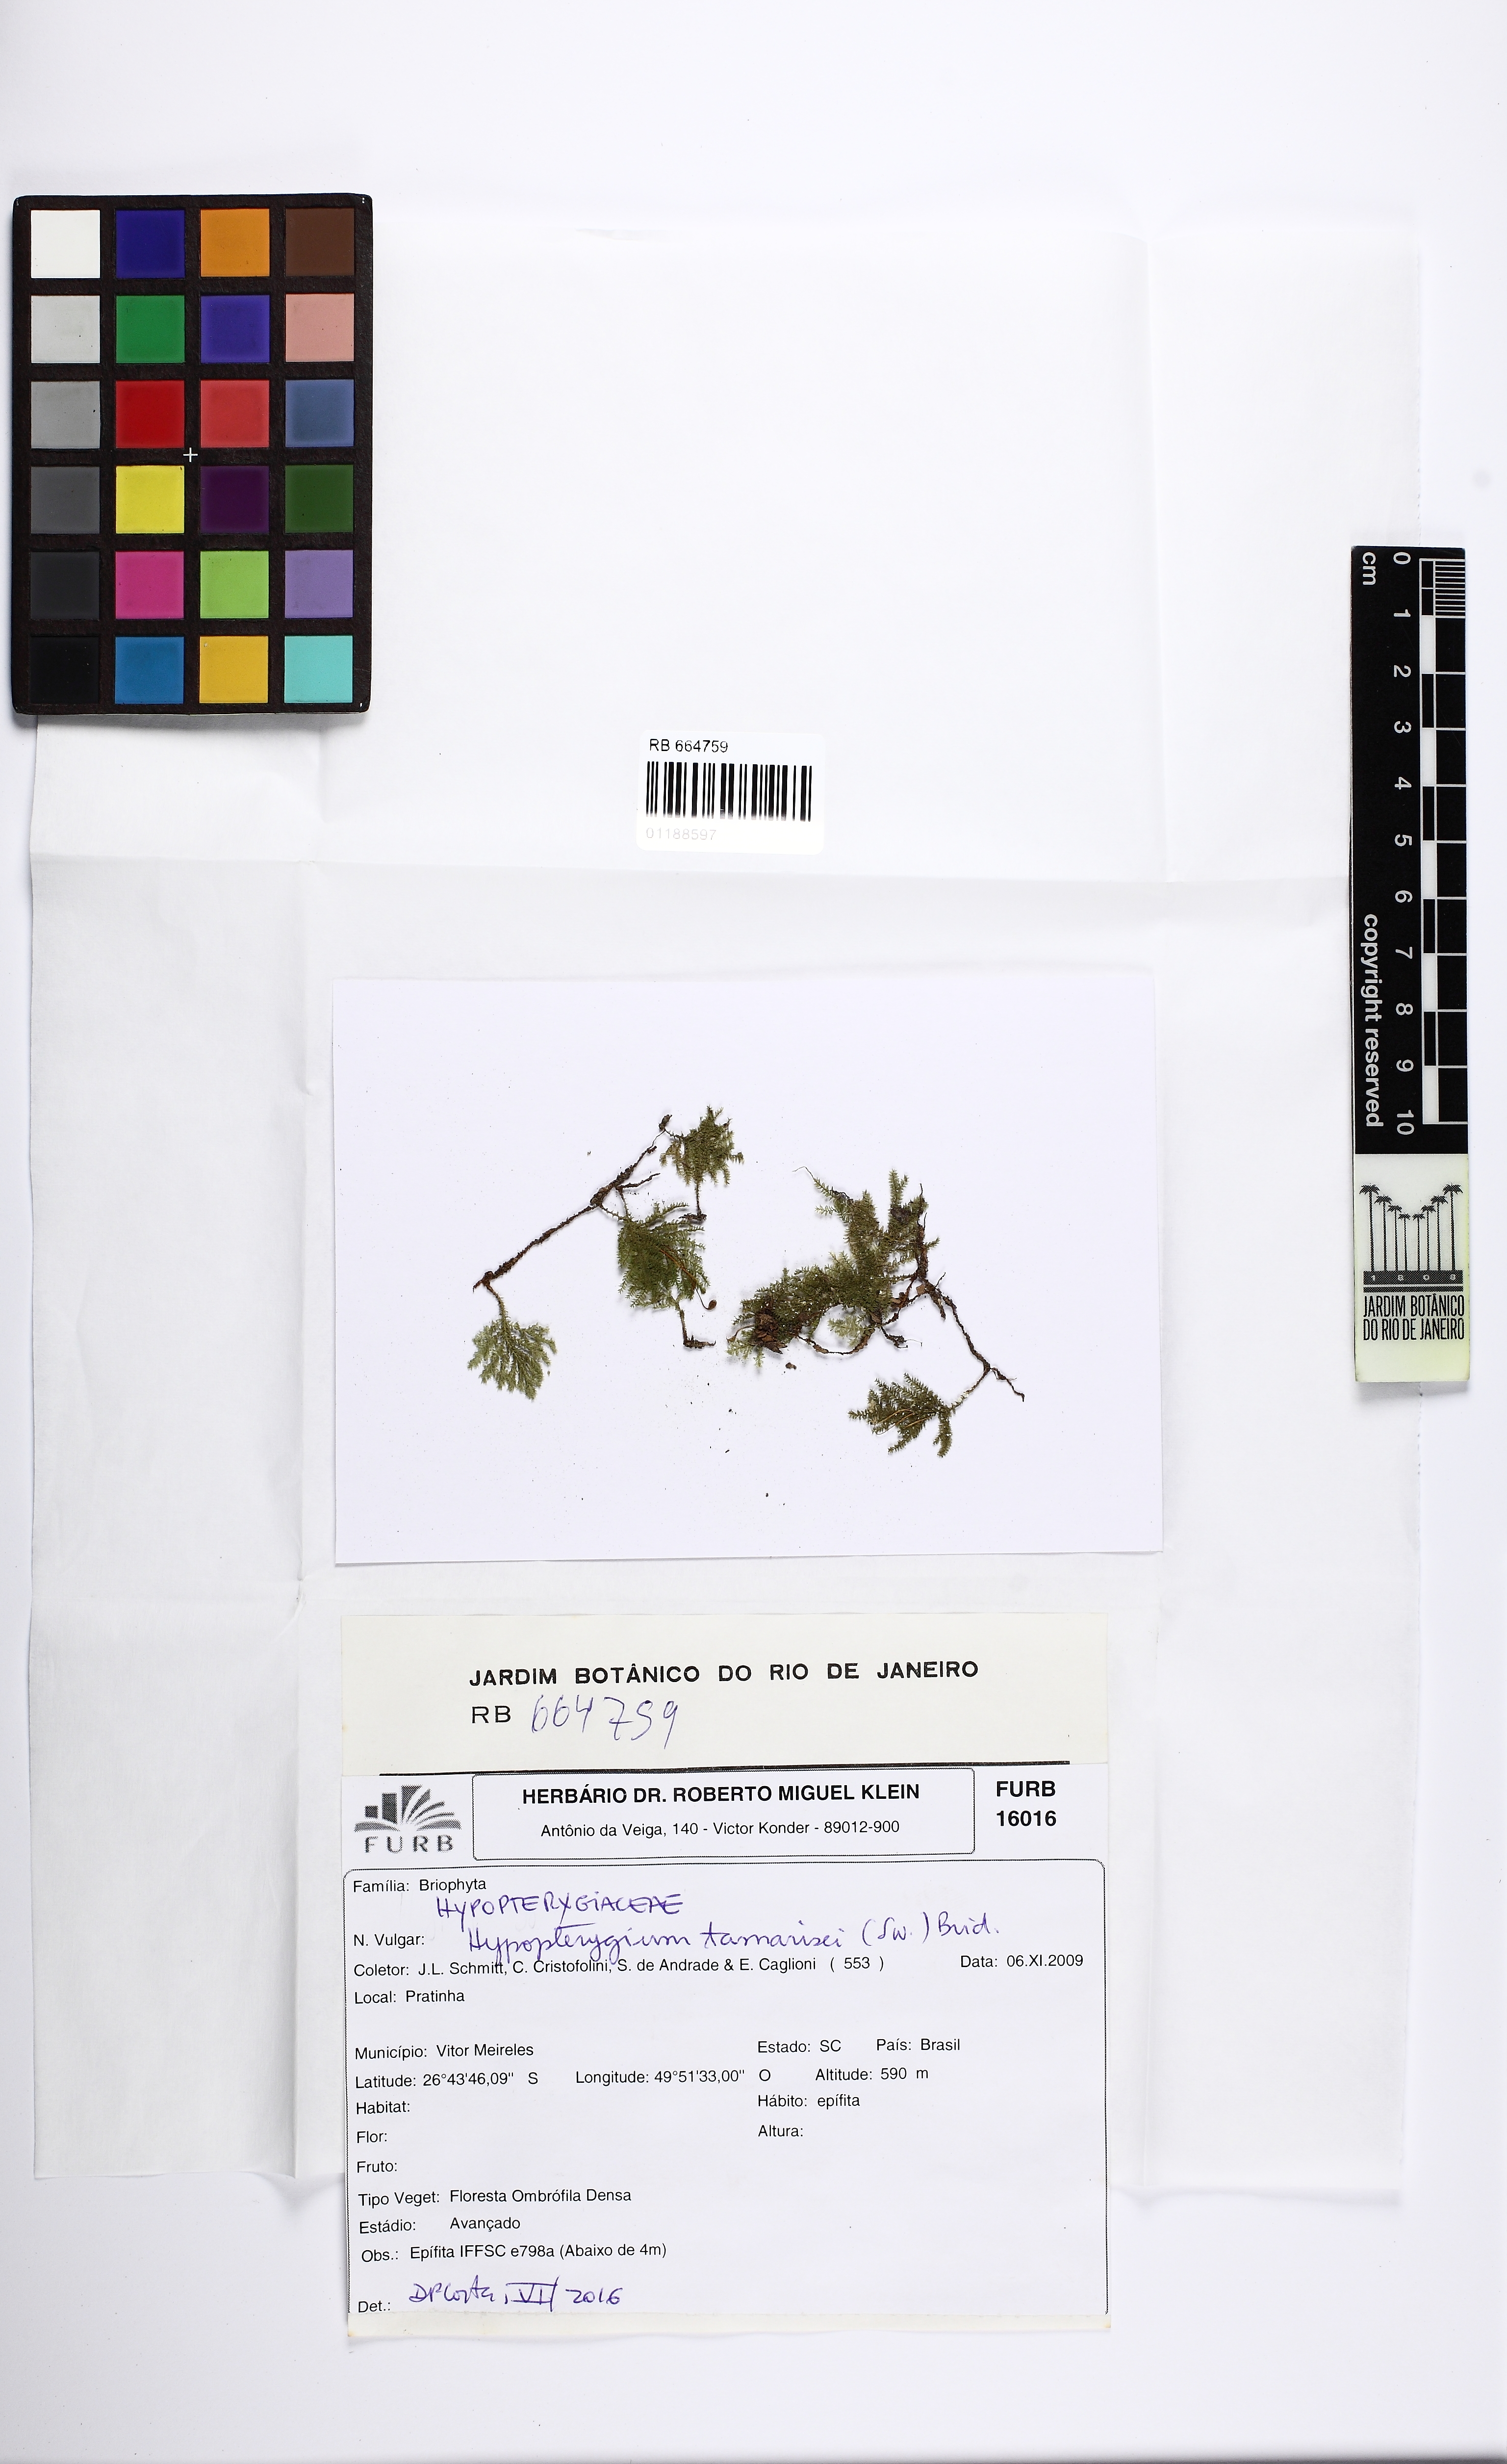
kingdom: Plantae
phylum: Bryophyta
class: Bryopsida
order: Hypopterygiales
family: Hypopterygiaceae
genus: Hypopterygium
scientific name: Hypopterygium tamarisci
